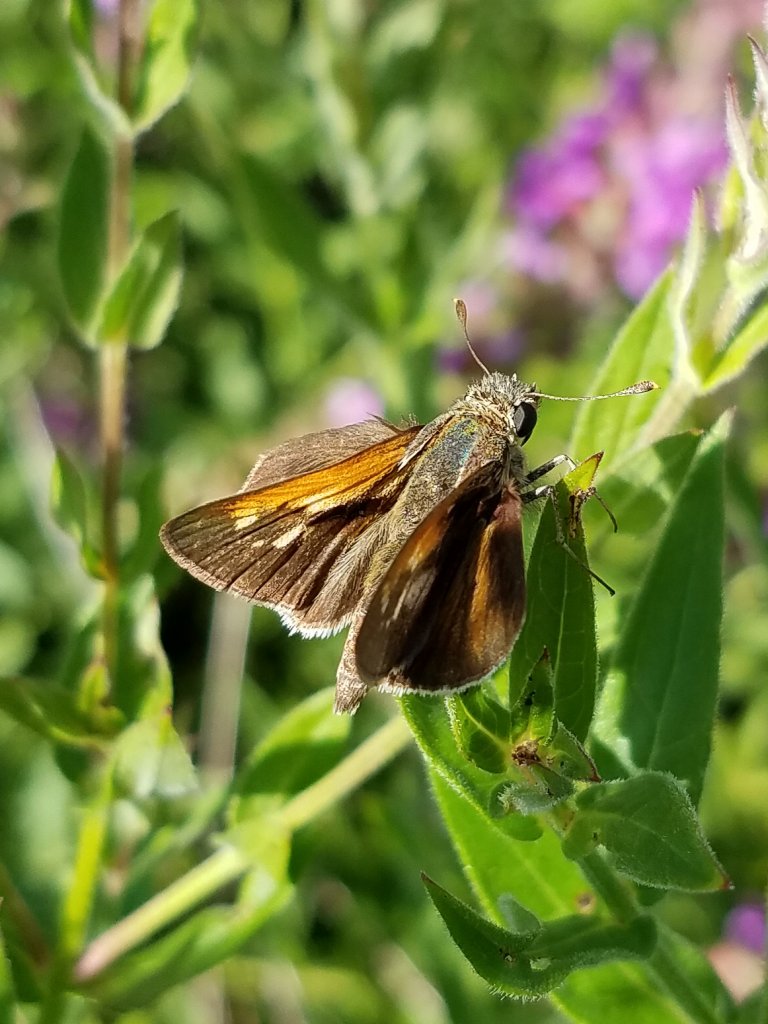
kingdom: Animalia
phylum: Arthropoda
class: Insecta
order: Lepidoptera
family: Hesperiidae
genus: Polites
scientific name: Polites themistocles
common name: Tawny-edged Skipper
